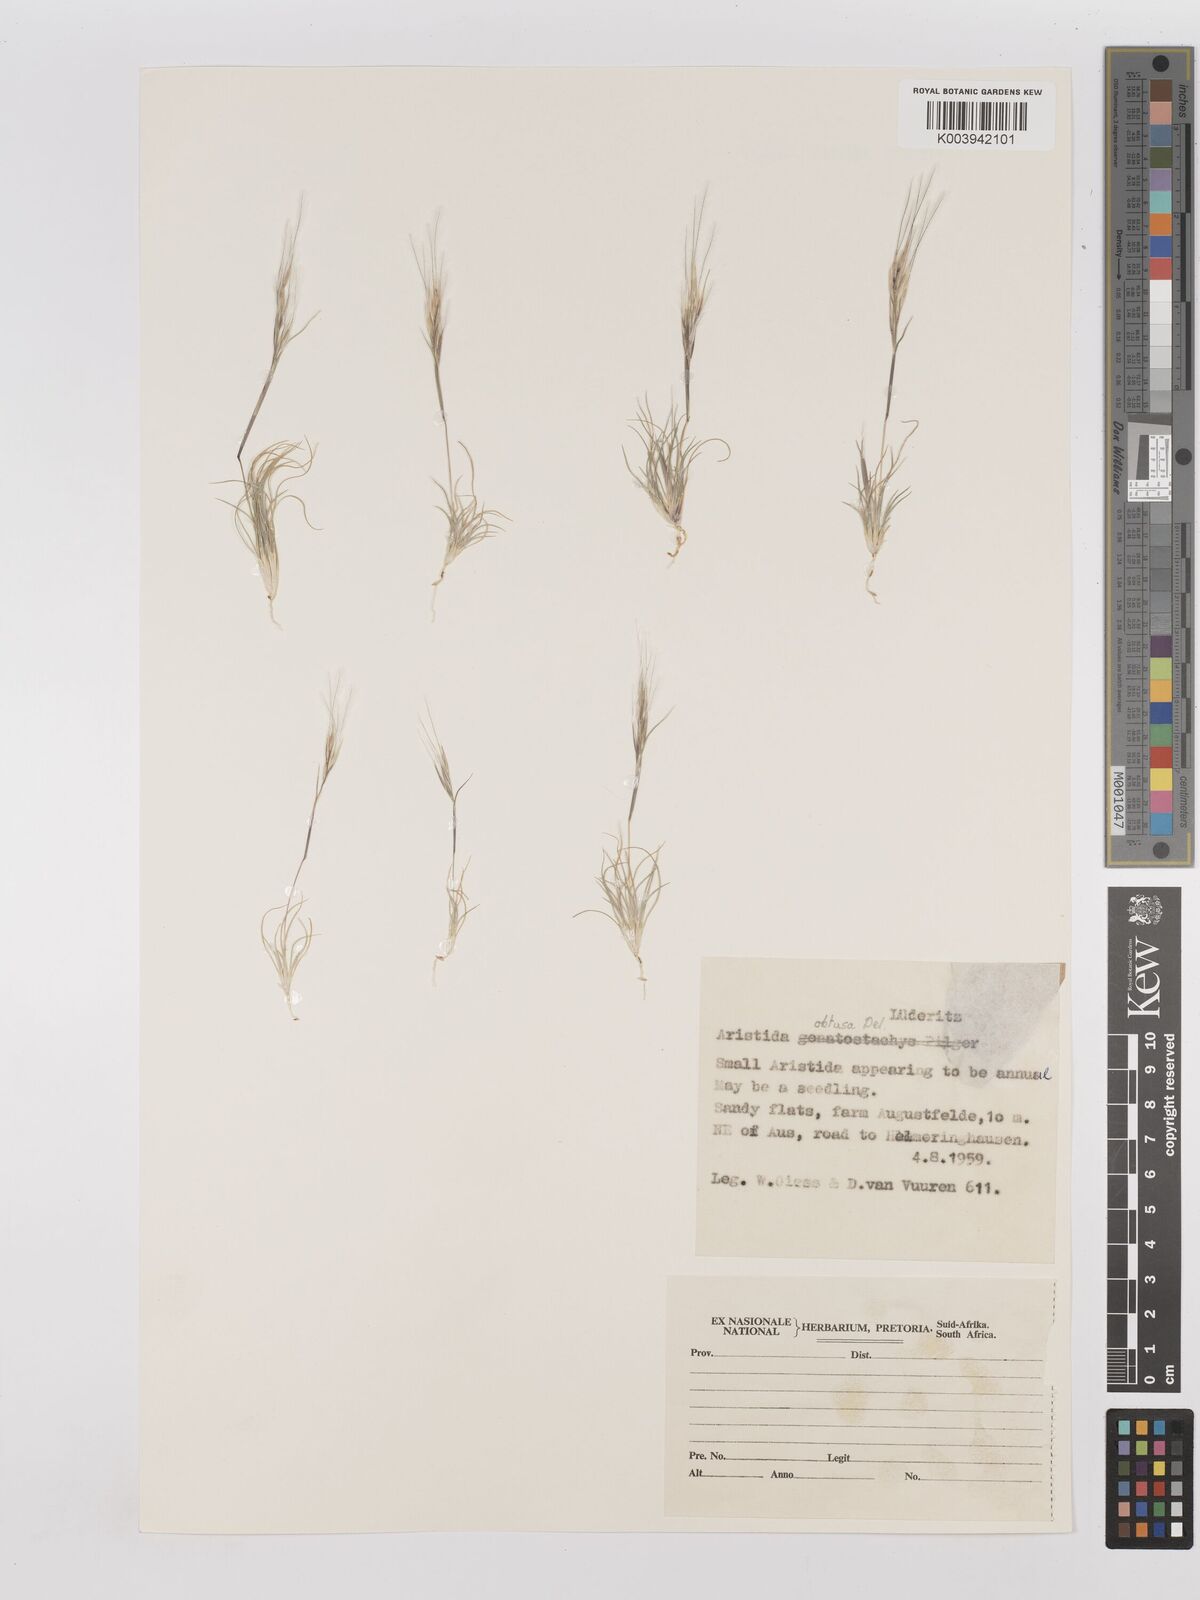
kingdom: Plantae
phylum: Tracheophyta
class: Liliopsida
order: Poales
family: Poaceae
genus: Stipagrostis
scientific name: Stipagrostis obtusa
